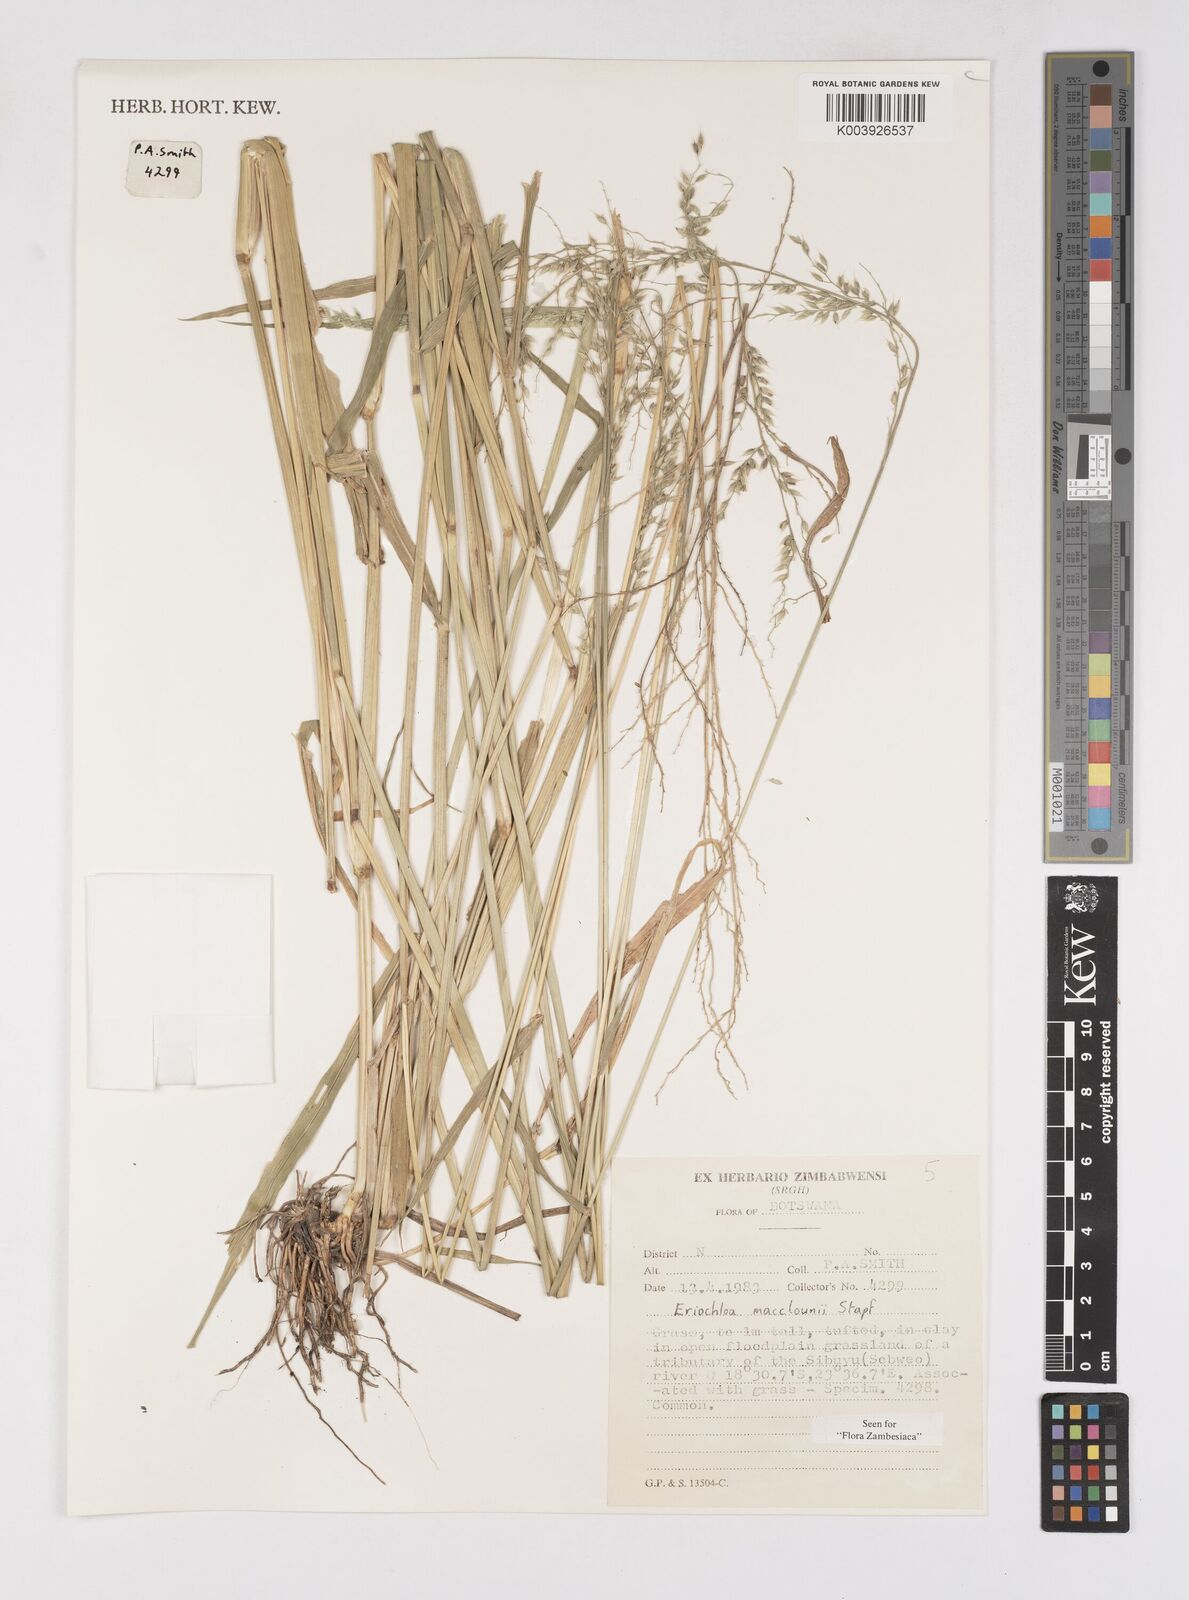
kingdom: Plantae
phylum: Tracheophyta
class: Liliopsida
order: Poales
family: Poaceae
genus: Eriochloa
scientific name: Eriochloa macclounii
